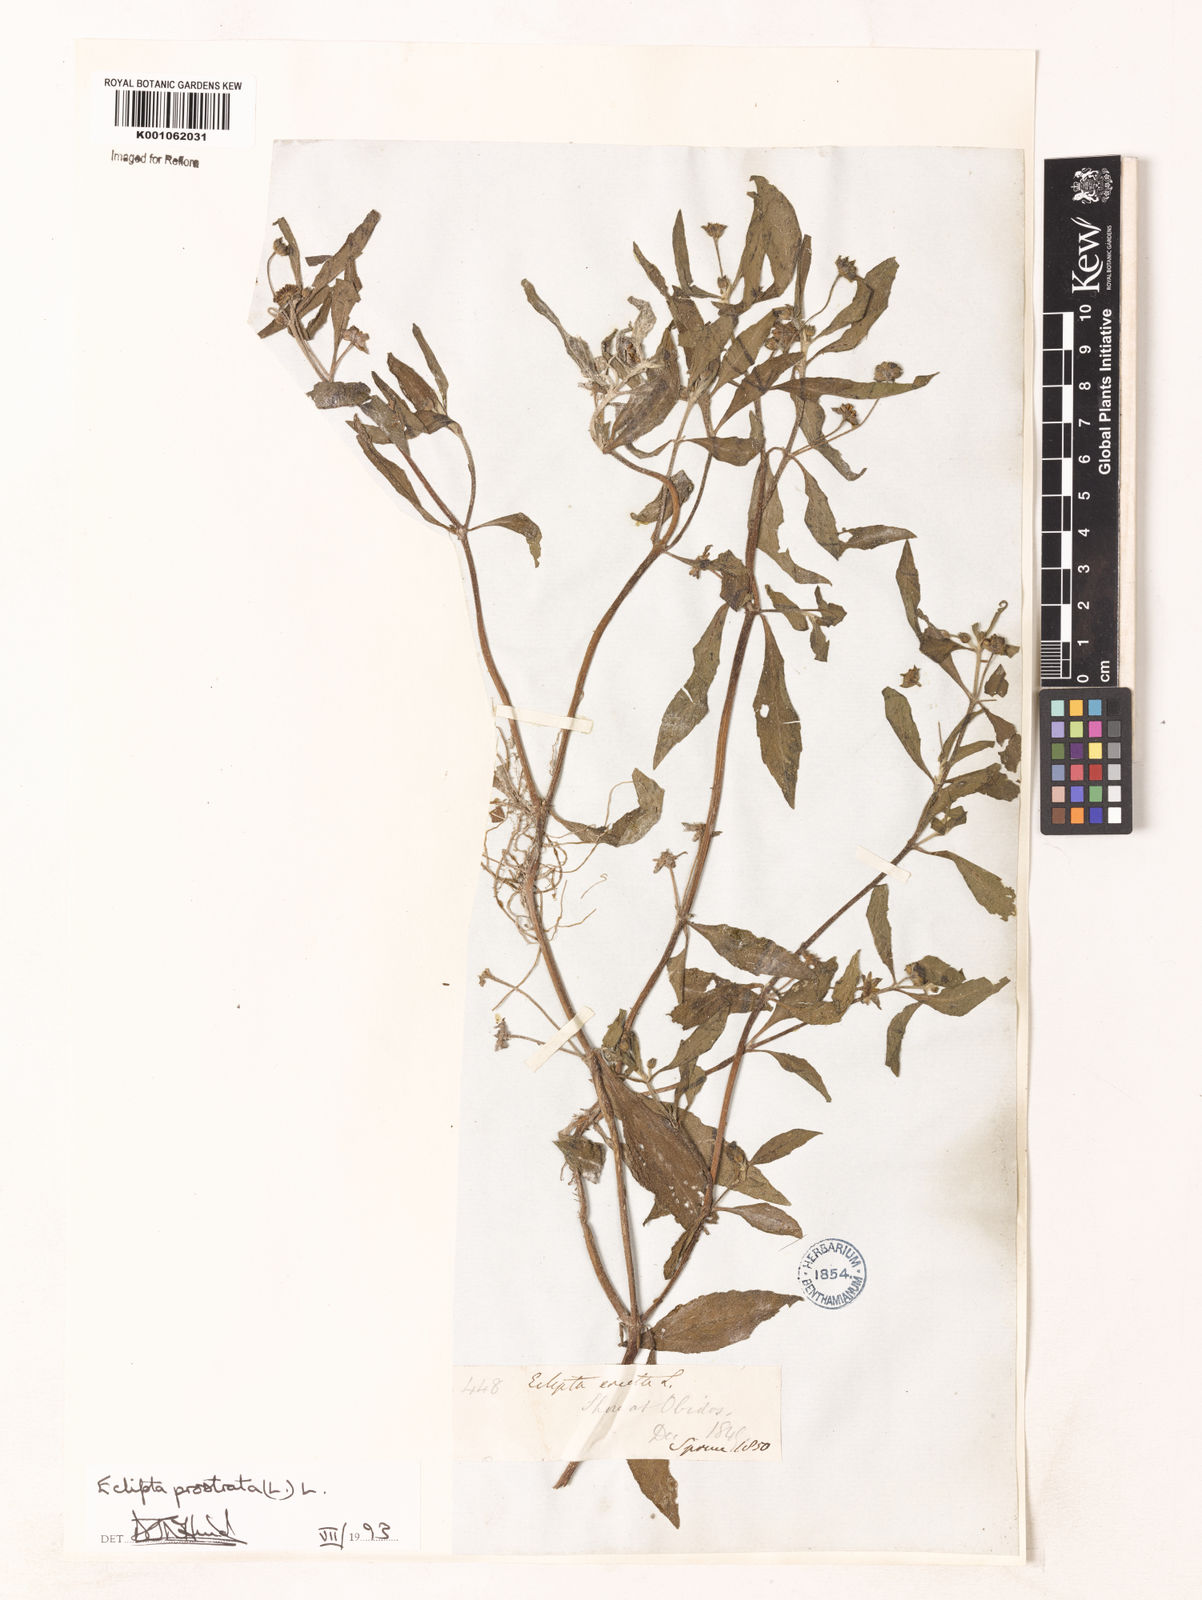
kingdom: Plantae
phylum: Tracheophyta
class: Magnoliopsida
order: Asterales
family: Asteraceae
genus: Enydra
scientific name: Enydra fluctuans
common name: Buffalo spinach
